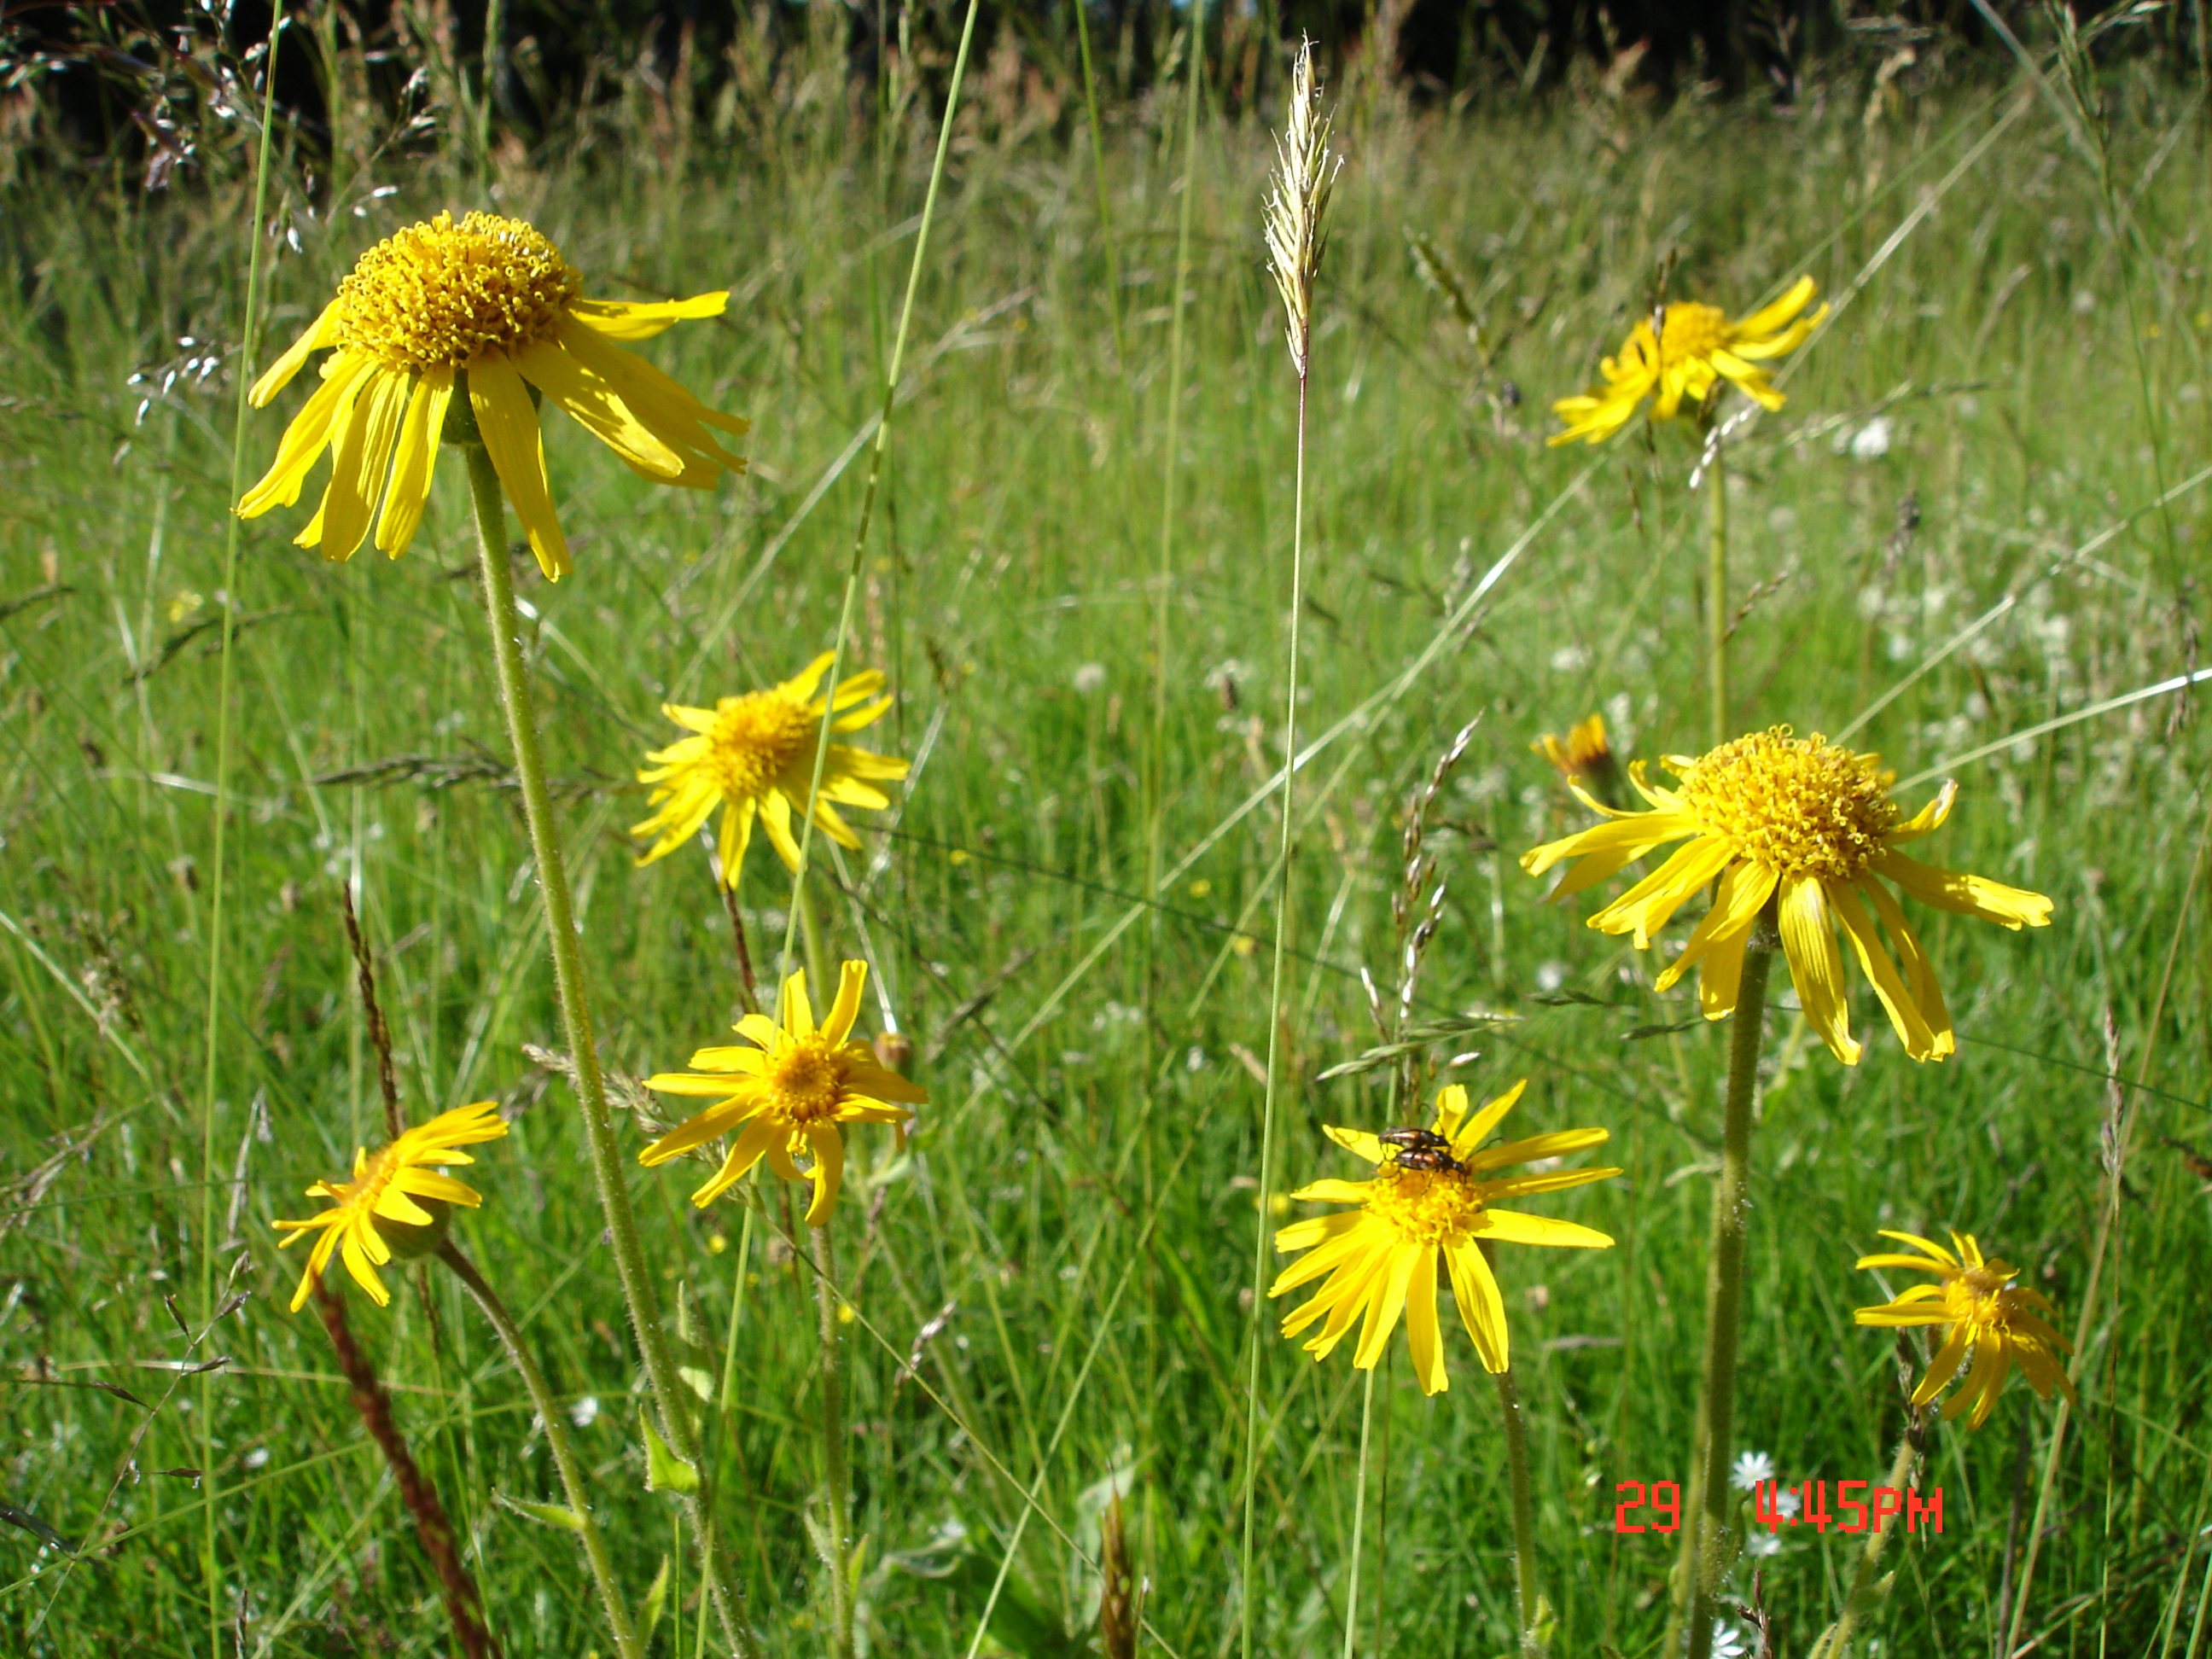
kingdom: Plantae
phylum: Tracheophyta
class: Magnoliopsida
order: Asterales
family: Asteraceae
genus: Arnica
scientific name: Arnica montana
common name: Leopard's bane
